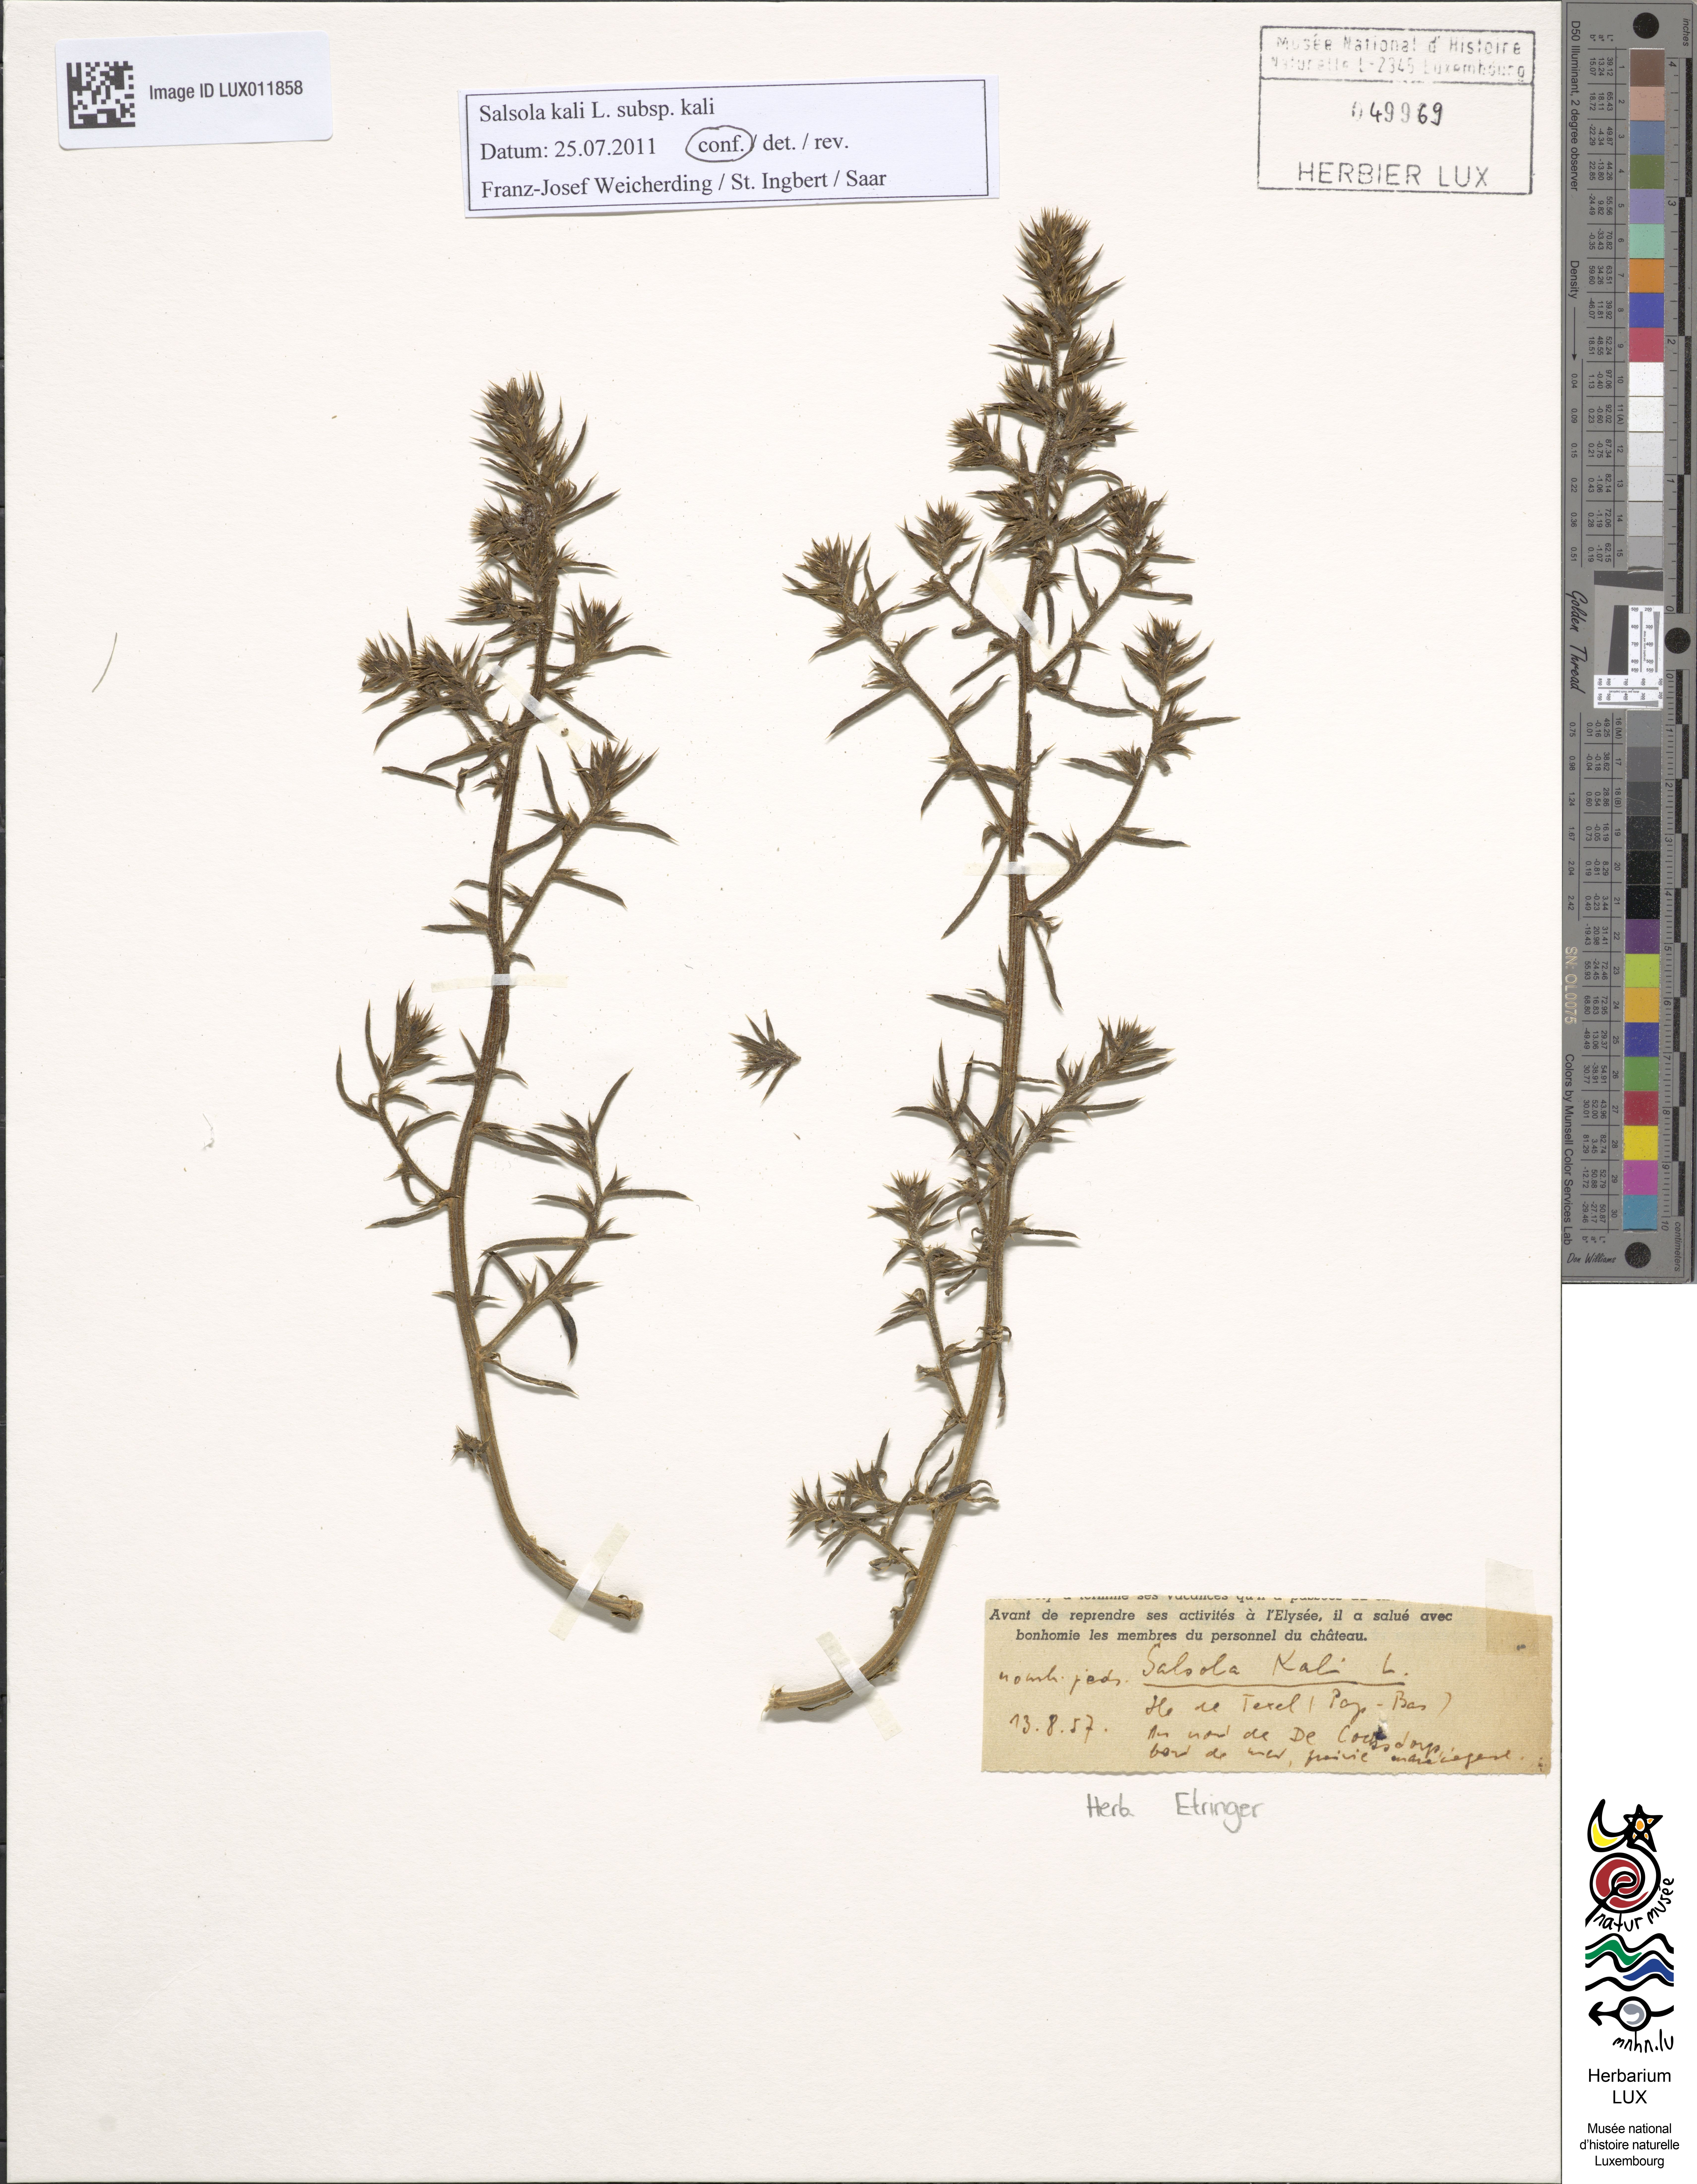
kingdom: Plantae
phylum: Tracheophyta
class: Magnoliopsida
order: Caryophyllales
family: Amaranthaceae
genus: Salsola
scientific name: Salsola kali
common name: Saltwort
